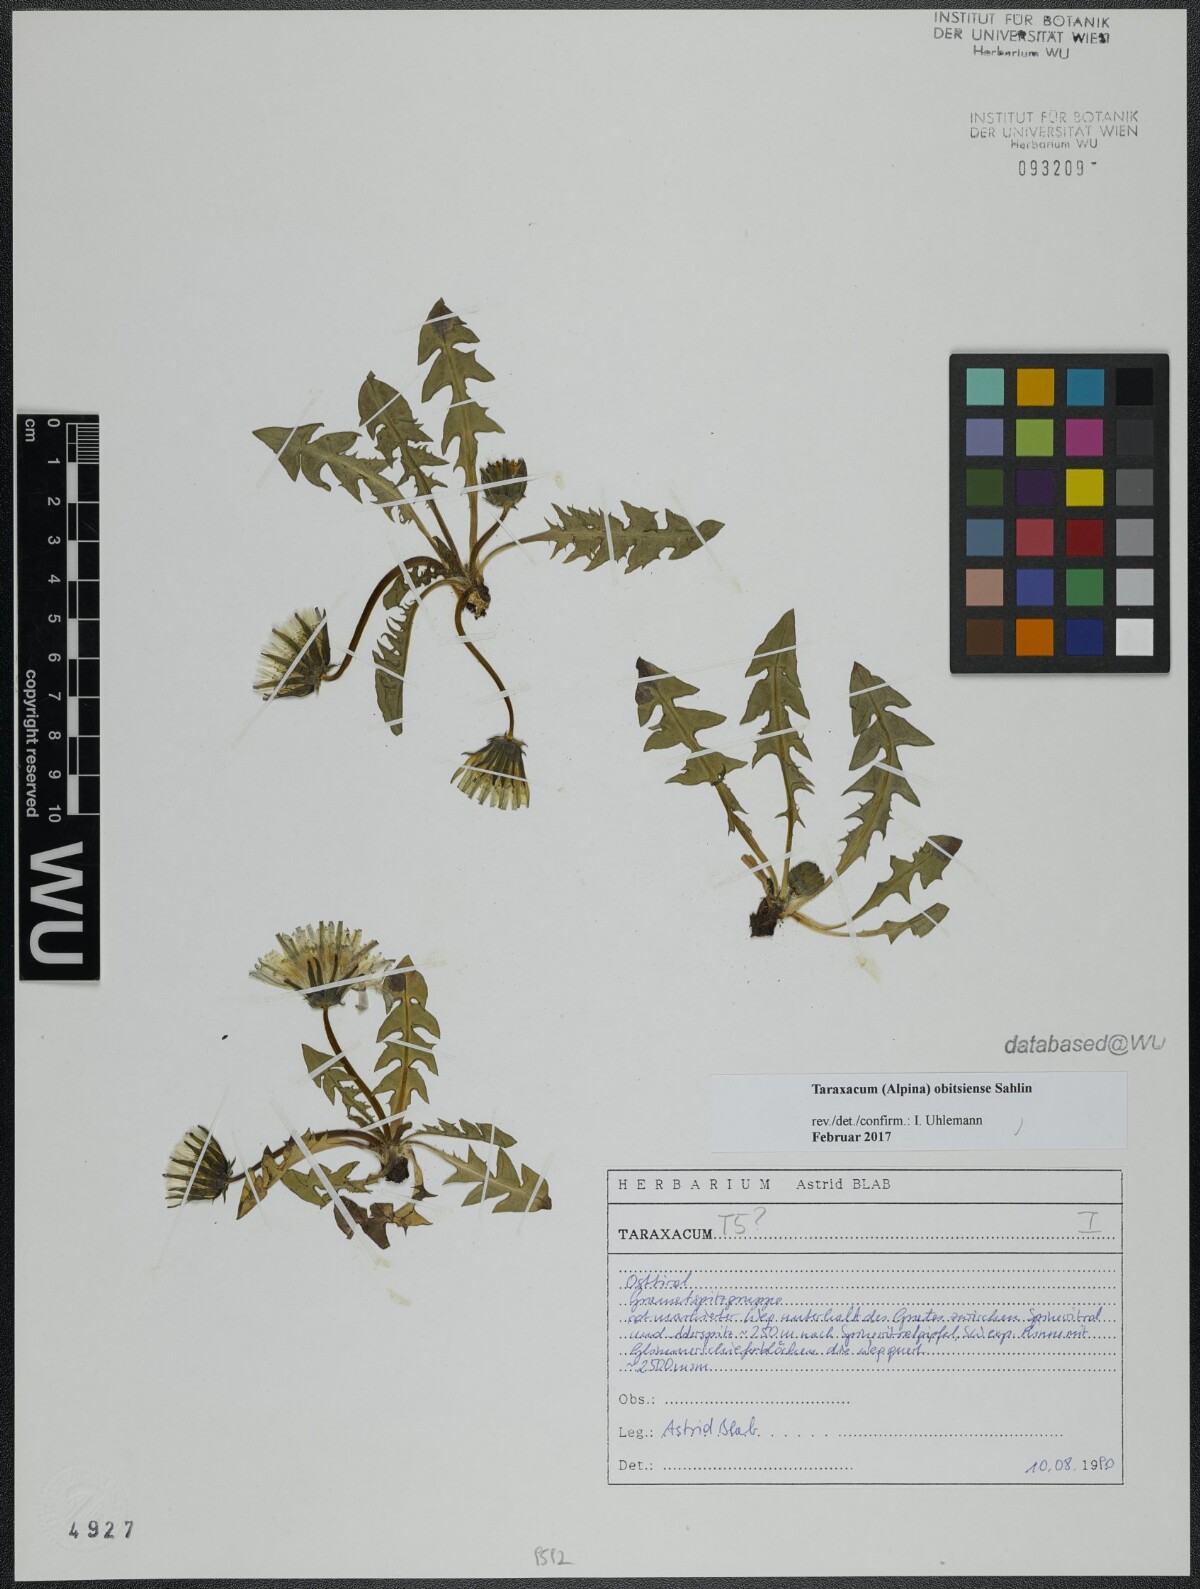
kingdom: Plantae
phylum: Tracheophyta
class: Magnoliopsida
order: Asterales
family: Asteraceae
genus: Taraxacum
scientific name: Taraxacum obitsiense
